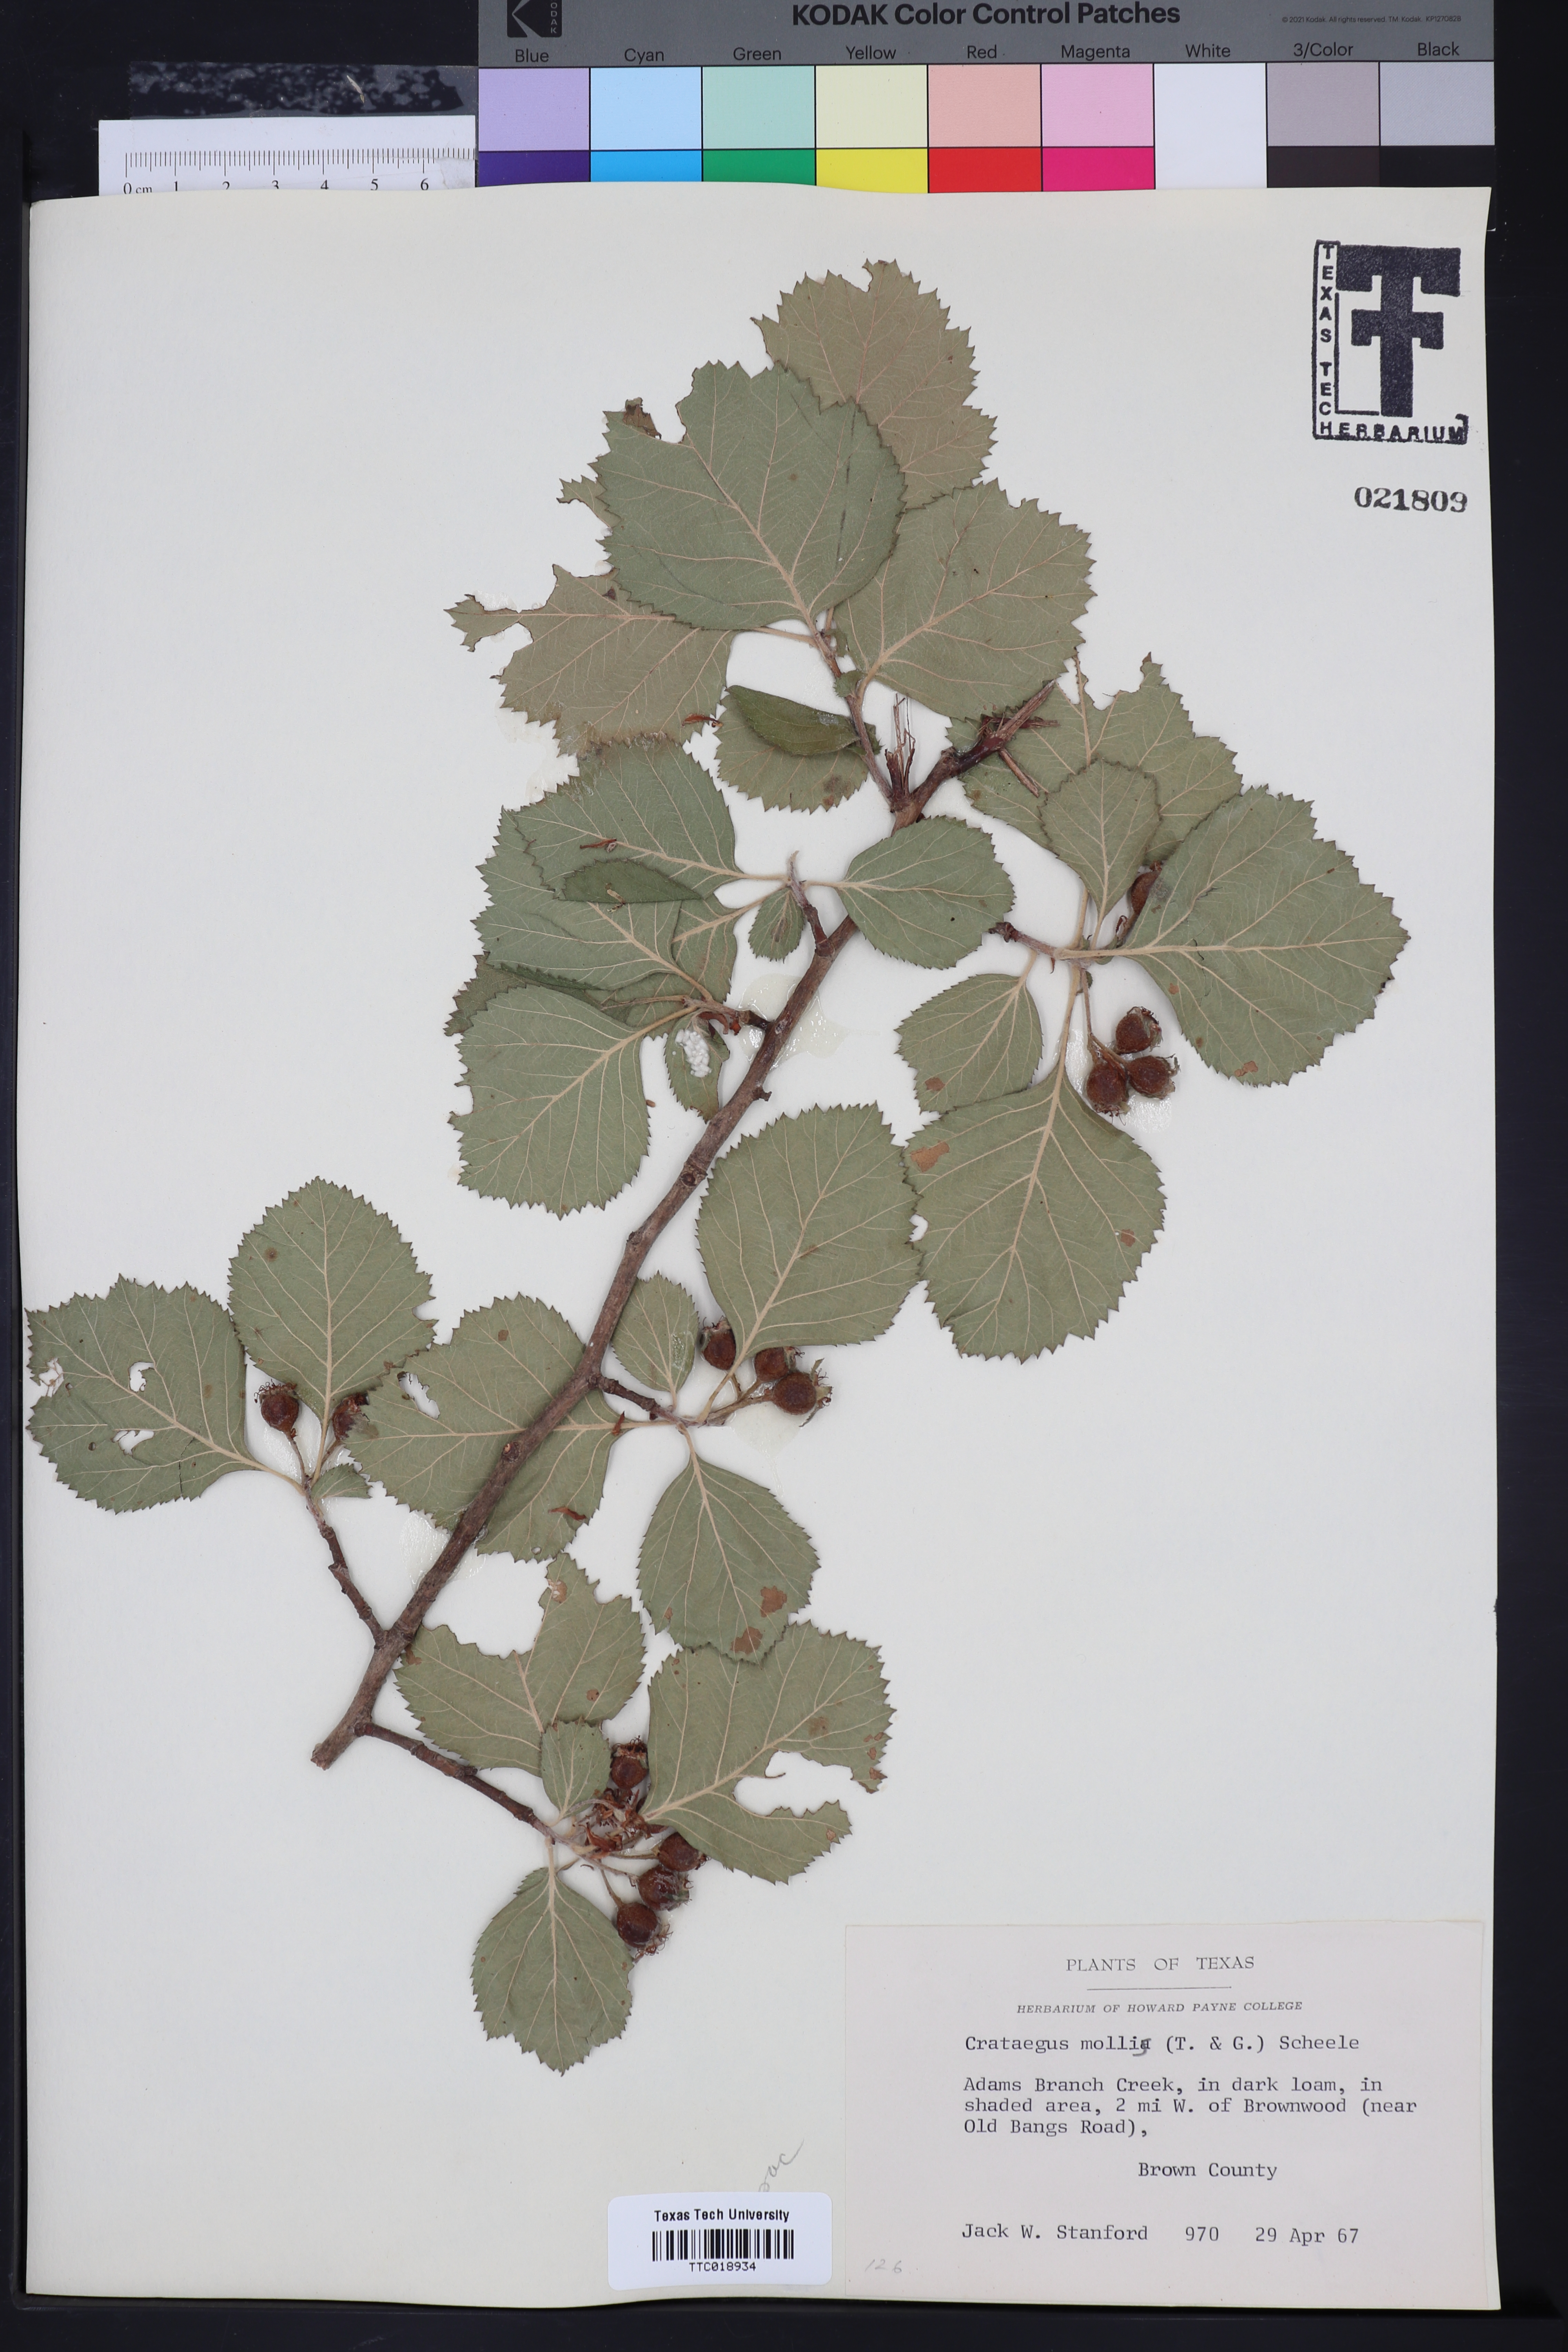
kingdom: Plantae
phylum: Tracheophyta
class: Magnoliopsida
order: Rosales
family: Rosaceae
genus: Crataegus
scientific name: Crataegus mollis
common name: Downy hawthorn
